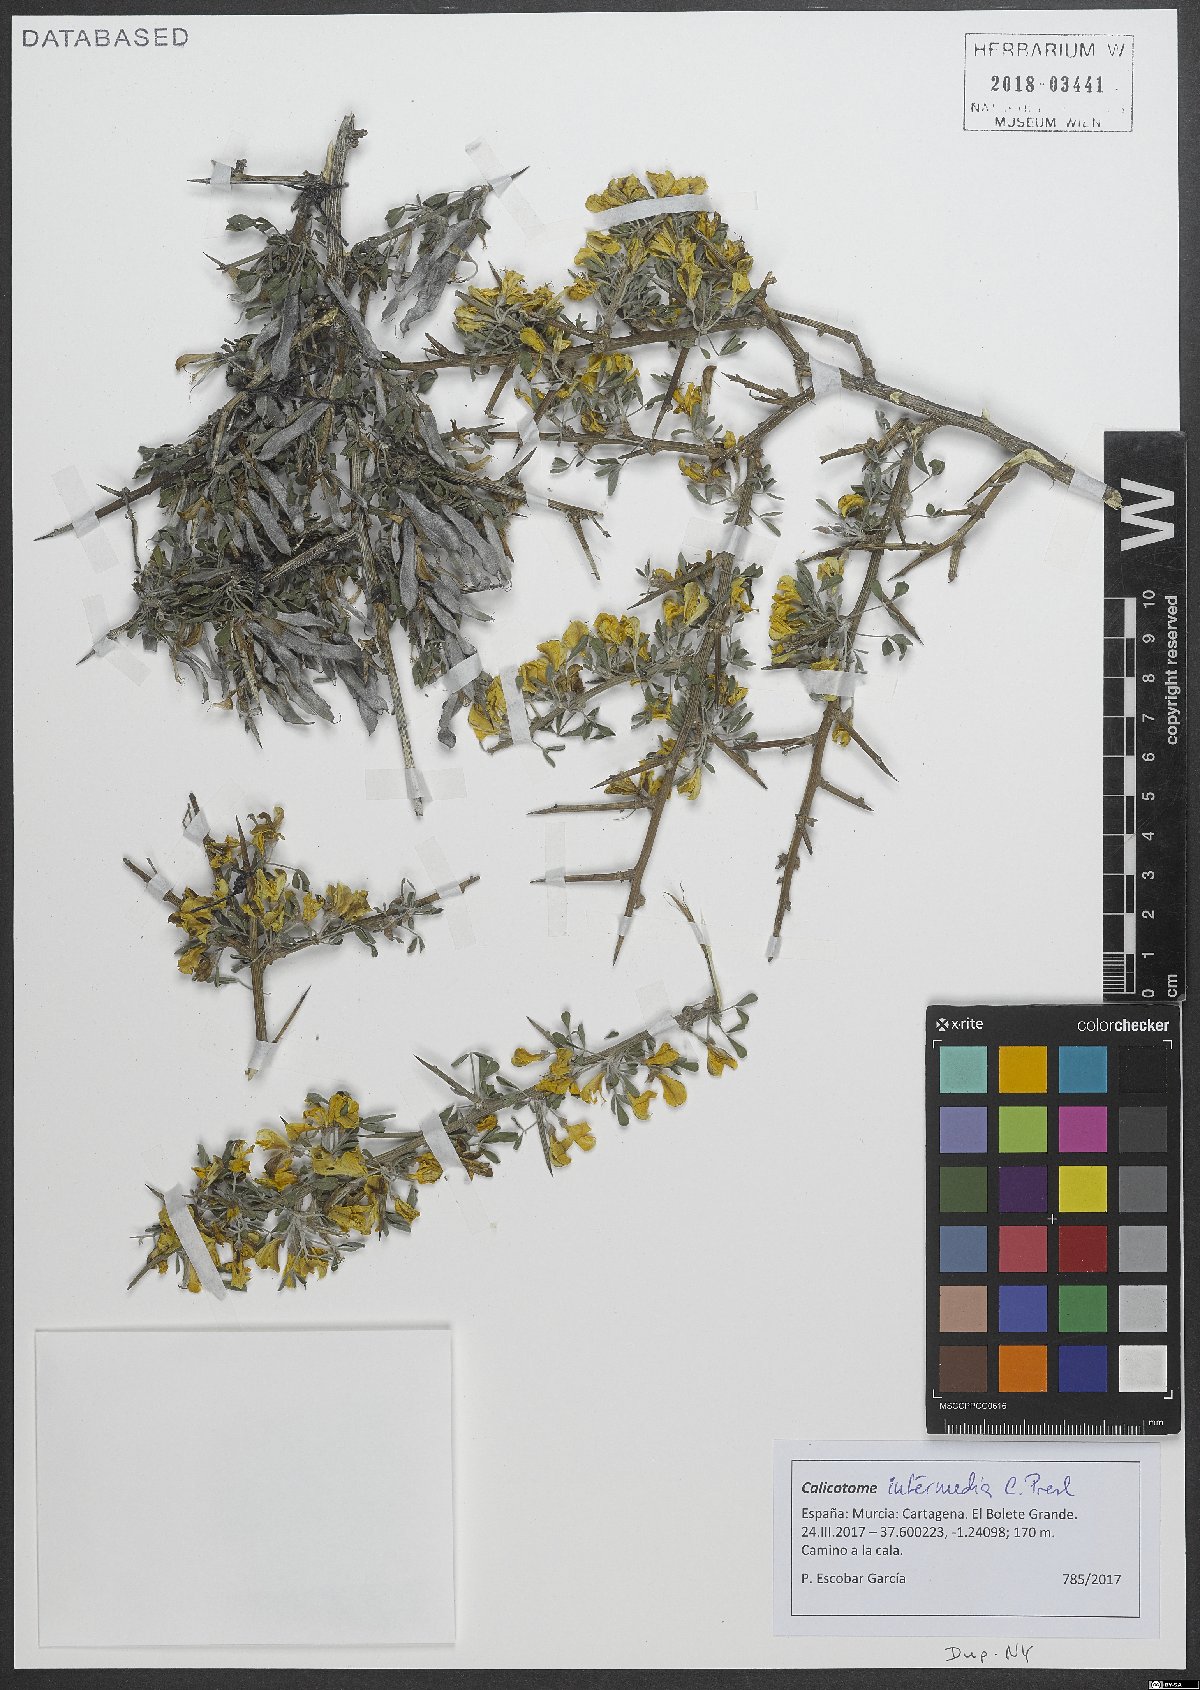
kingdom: Plantae
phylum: Tracheophyta
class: Magnoliopsida
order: Fabales
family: Fabaceae
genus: Calicotome
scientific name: Calicotome infesta
